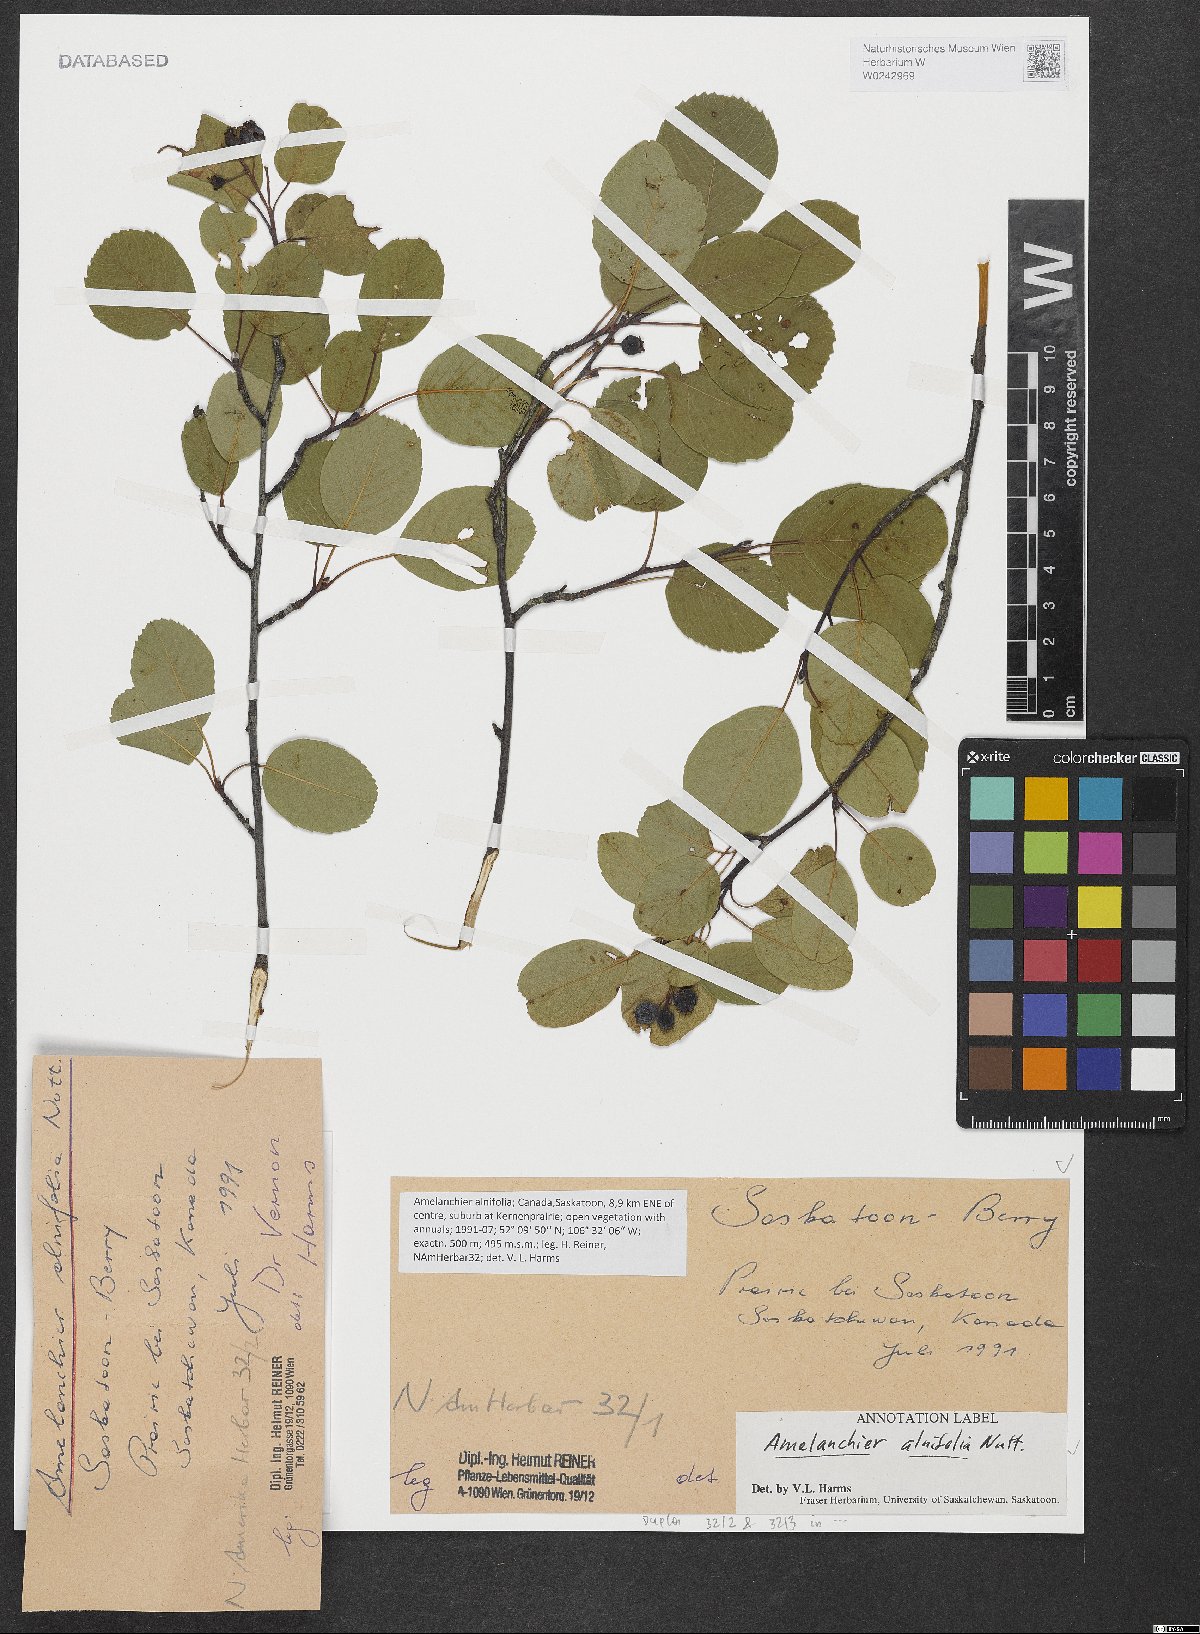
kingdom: Plantae
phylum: Tracheophyta
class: Magnoliopsida
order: Rosales
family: Rosaceae
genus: Amelanchier
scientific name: Amelanchier alnifolia
